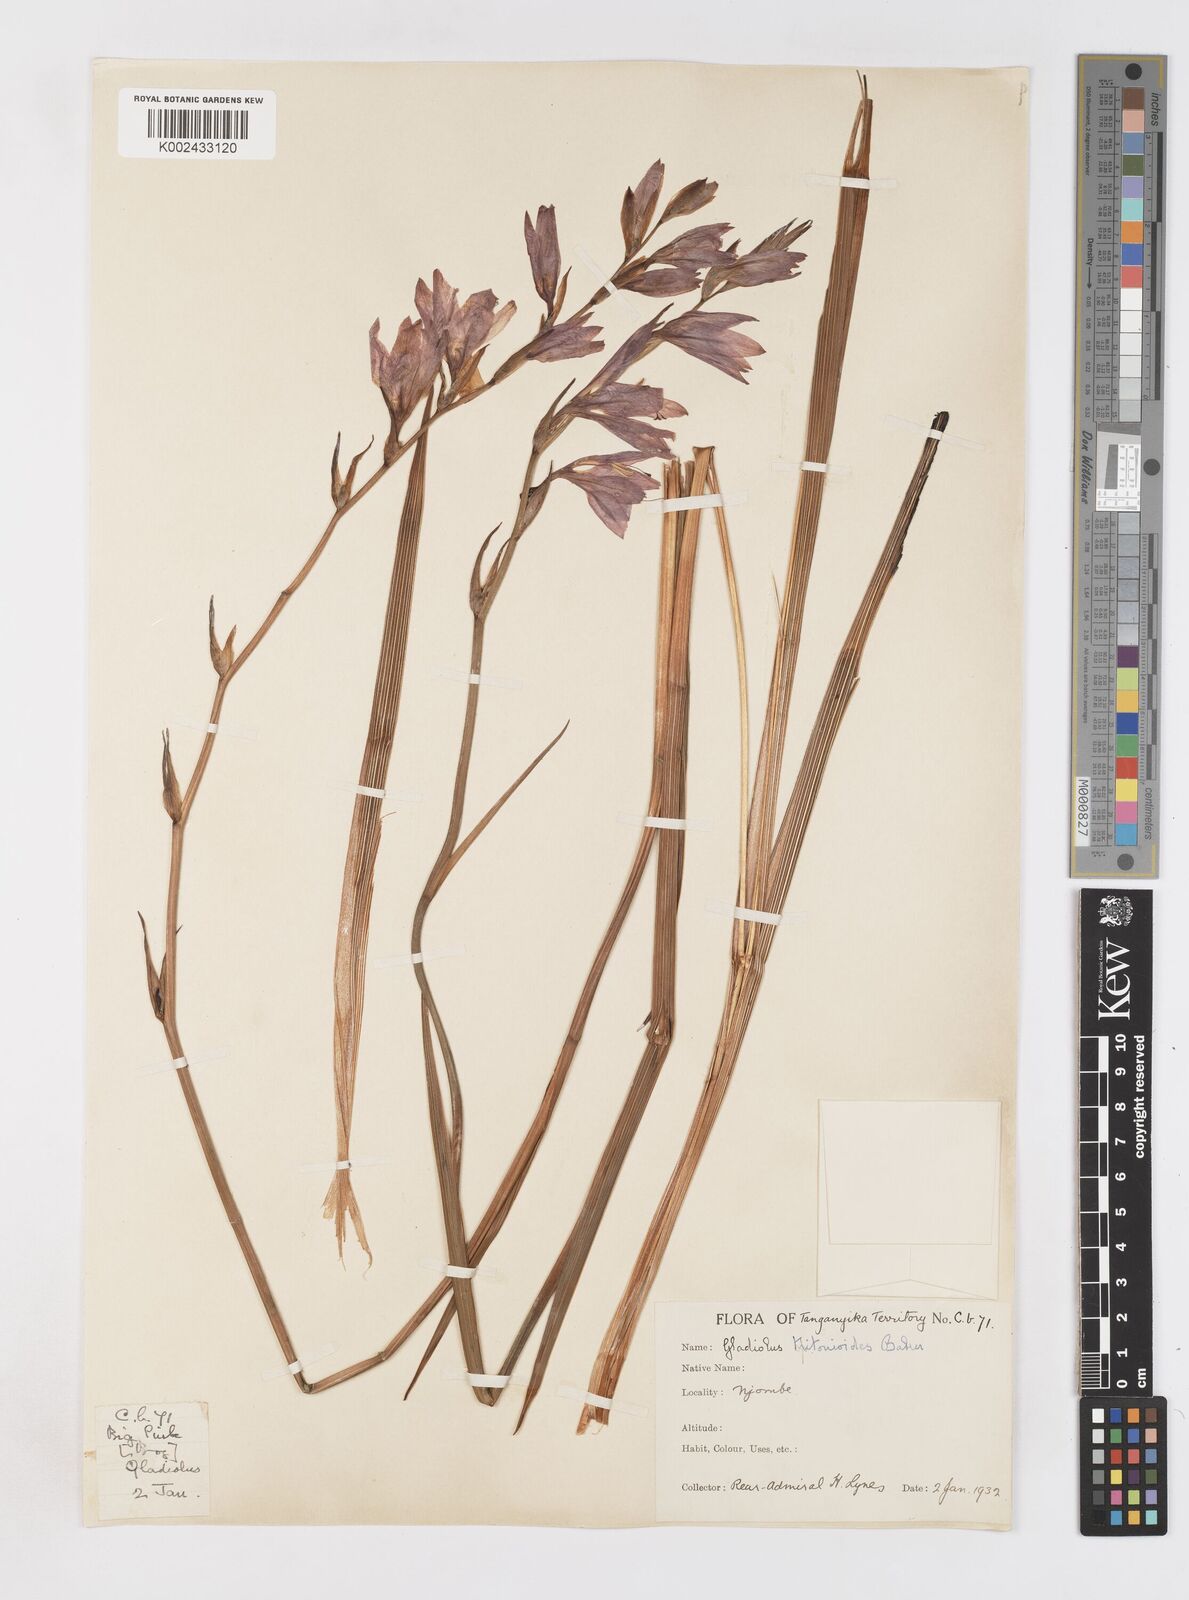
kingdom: Plantae
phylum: Tracheophyta
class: Liliopsida
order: Asparagales
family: Iridaceae
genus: Gladiolus
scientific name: Gladiolus laxiflorus
